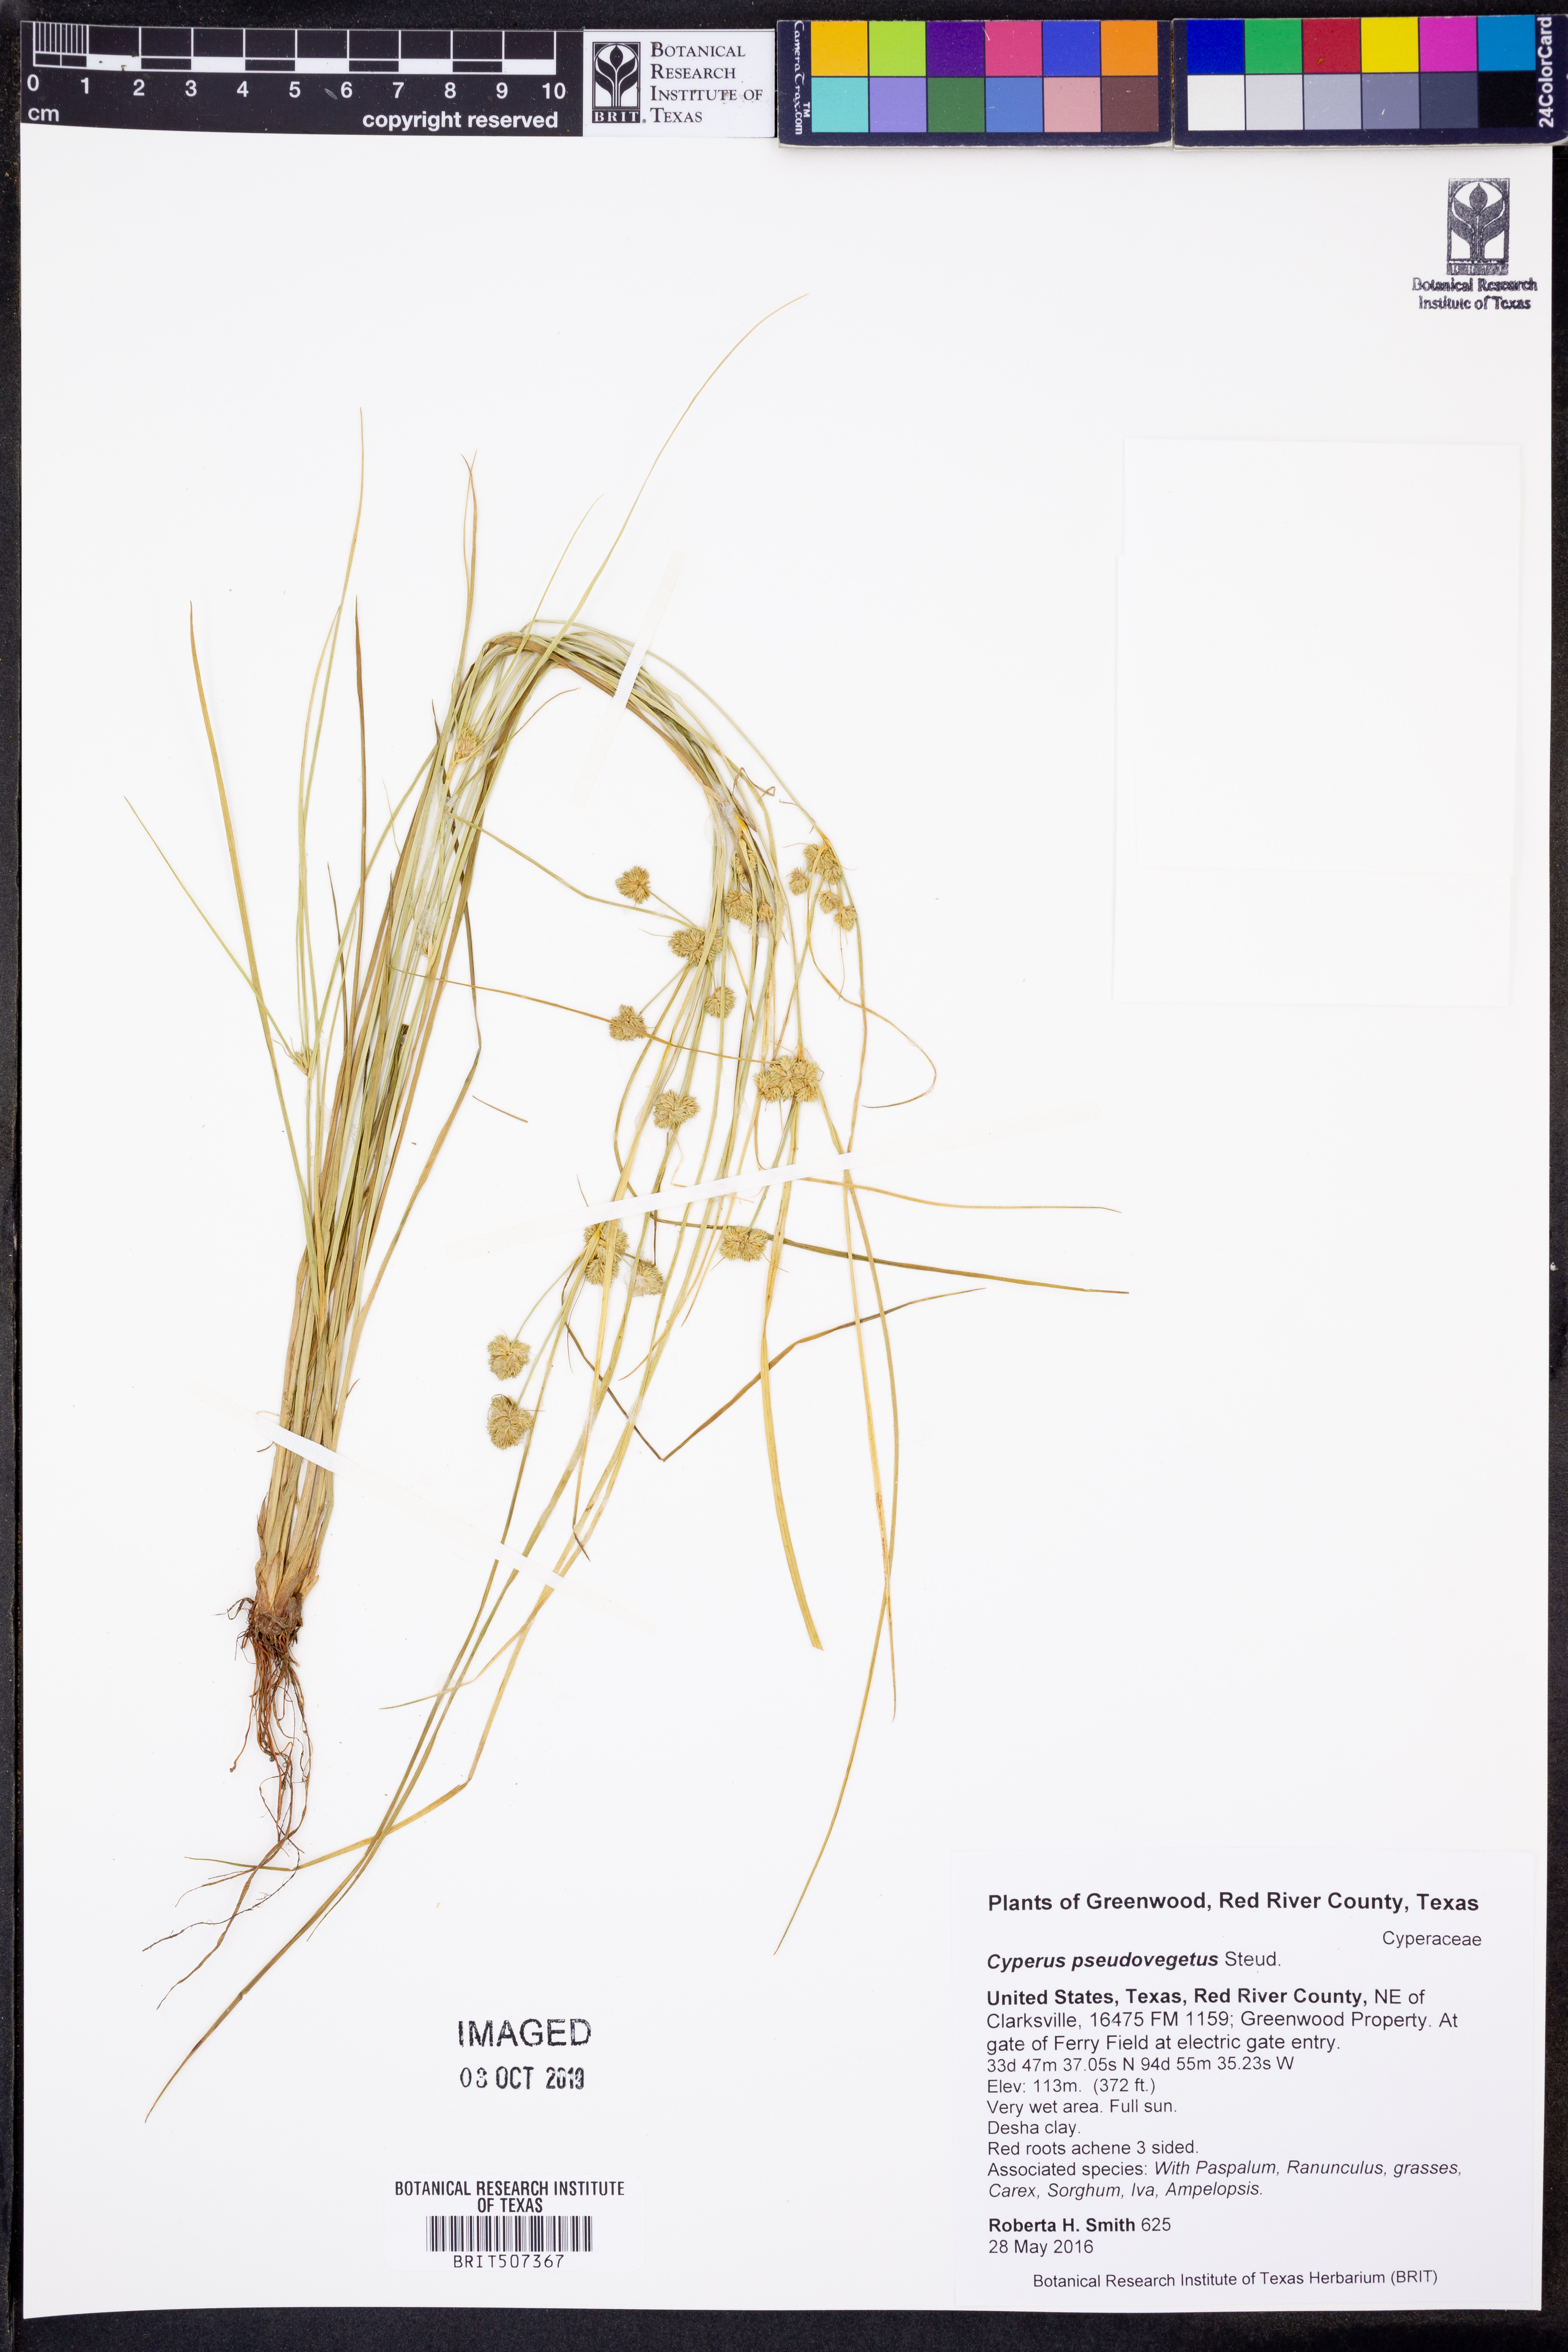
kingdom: Plantae
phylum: Tracheophyta
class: Liliopsida
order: Poales
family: Cyperaceae
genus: Cyperus
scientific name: Cyperus pseudovegetus
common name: Marsh flat sedge
